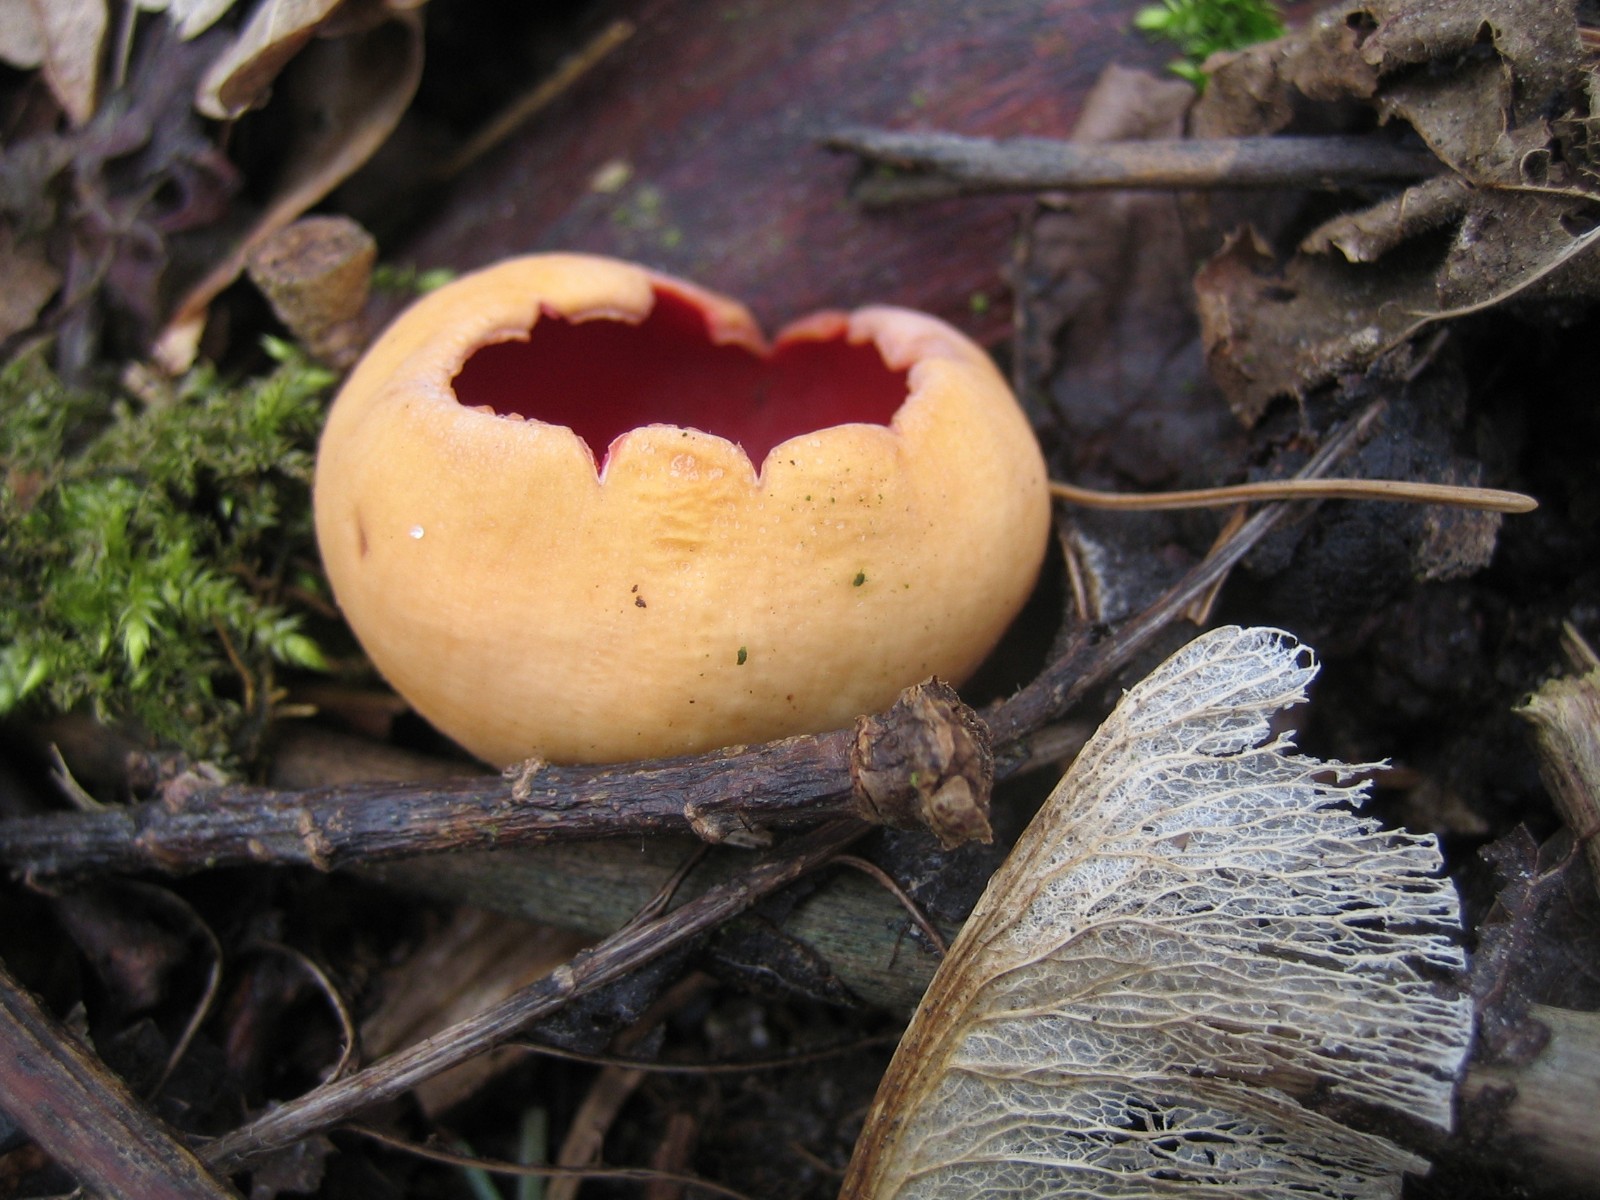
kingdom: Fungi
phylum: Ascomycota
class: Pezizomycetes
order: Pezizales
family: Sarcoscyphaceae
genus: Sarcoscypha
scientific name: Sarcoscypha austriaca
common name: krølhåret pragtbæger
